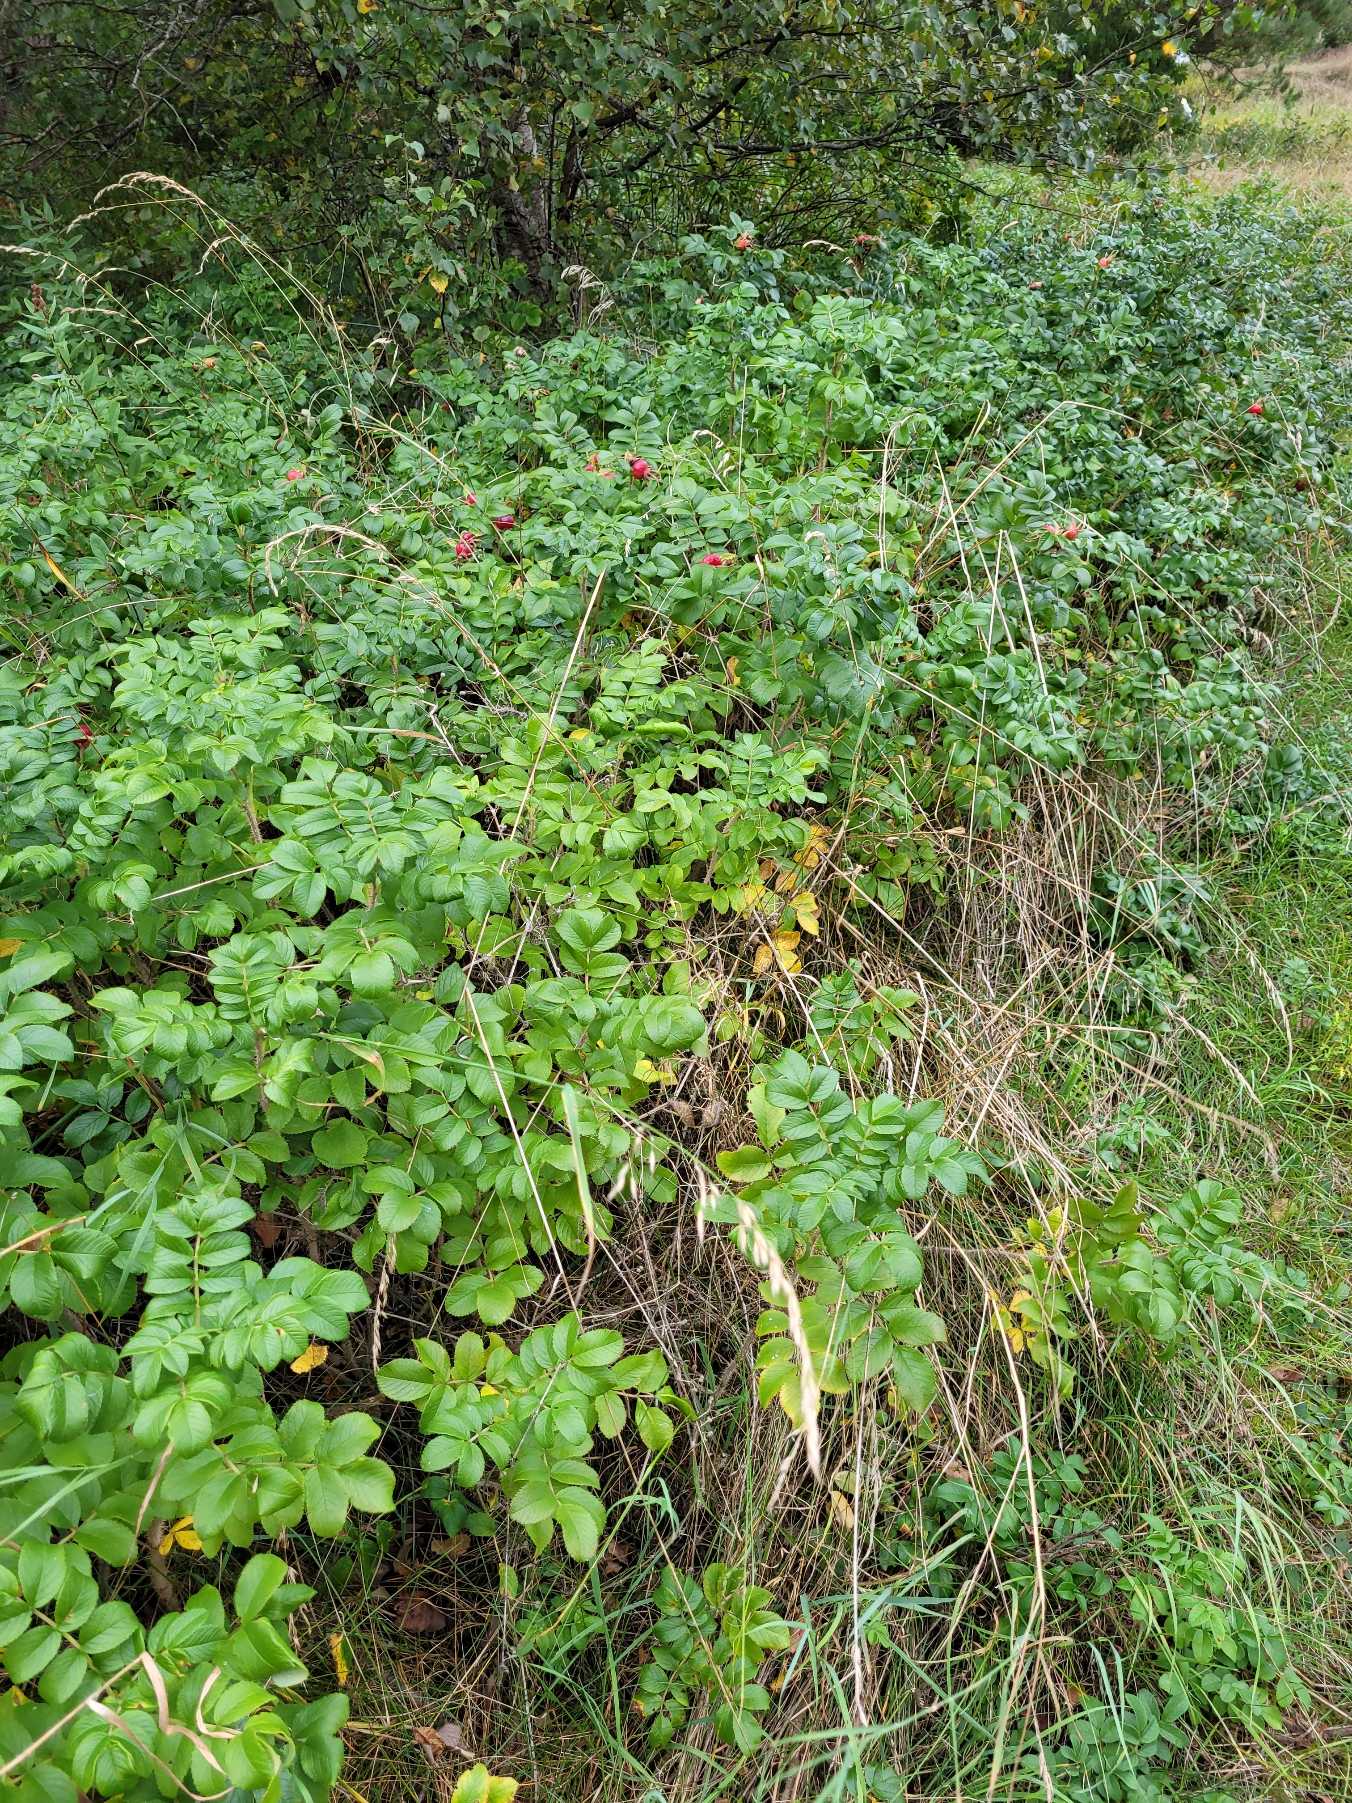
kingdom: Plantae
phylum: Tracheophyta
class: Magnoliopsida
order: Rosales
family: Rosaceae
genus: Rosa
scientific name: Rosa rugosa
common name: Rynket rose
